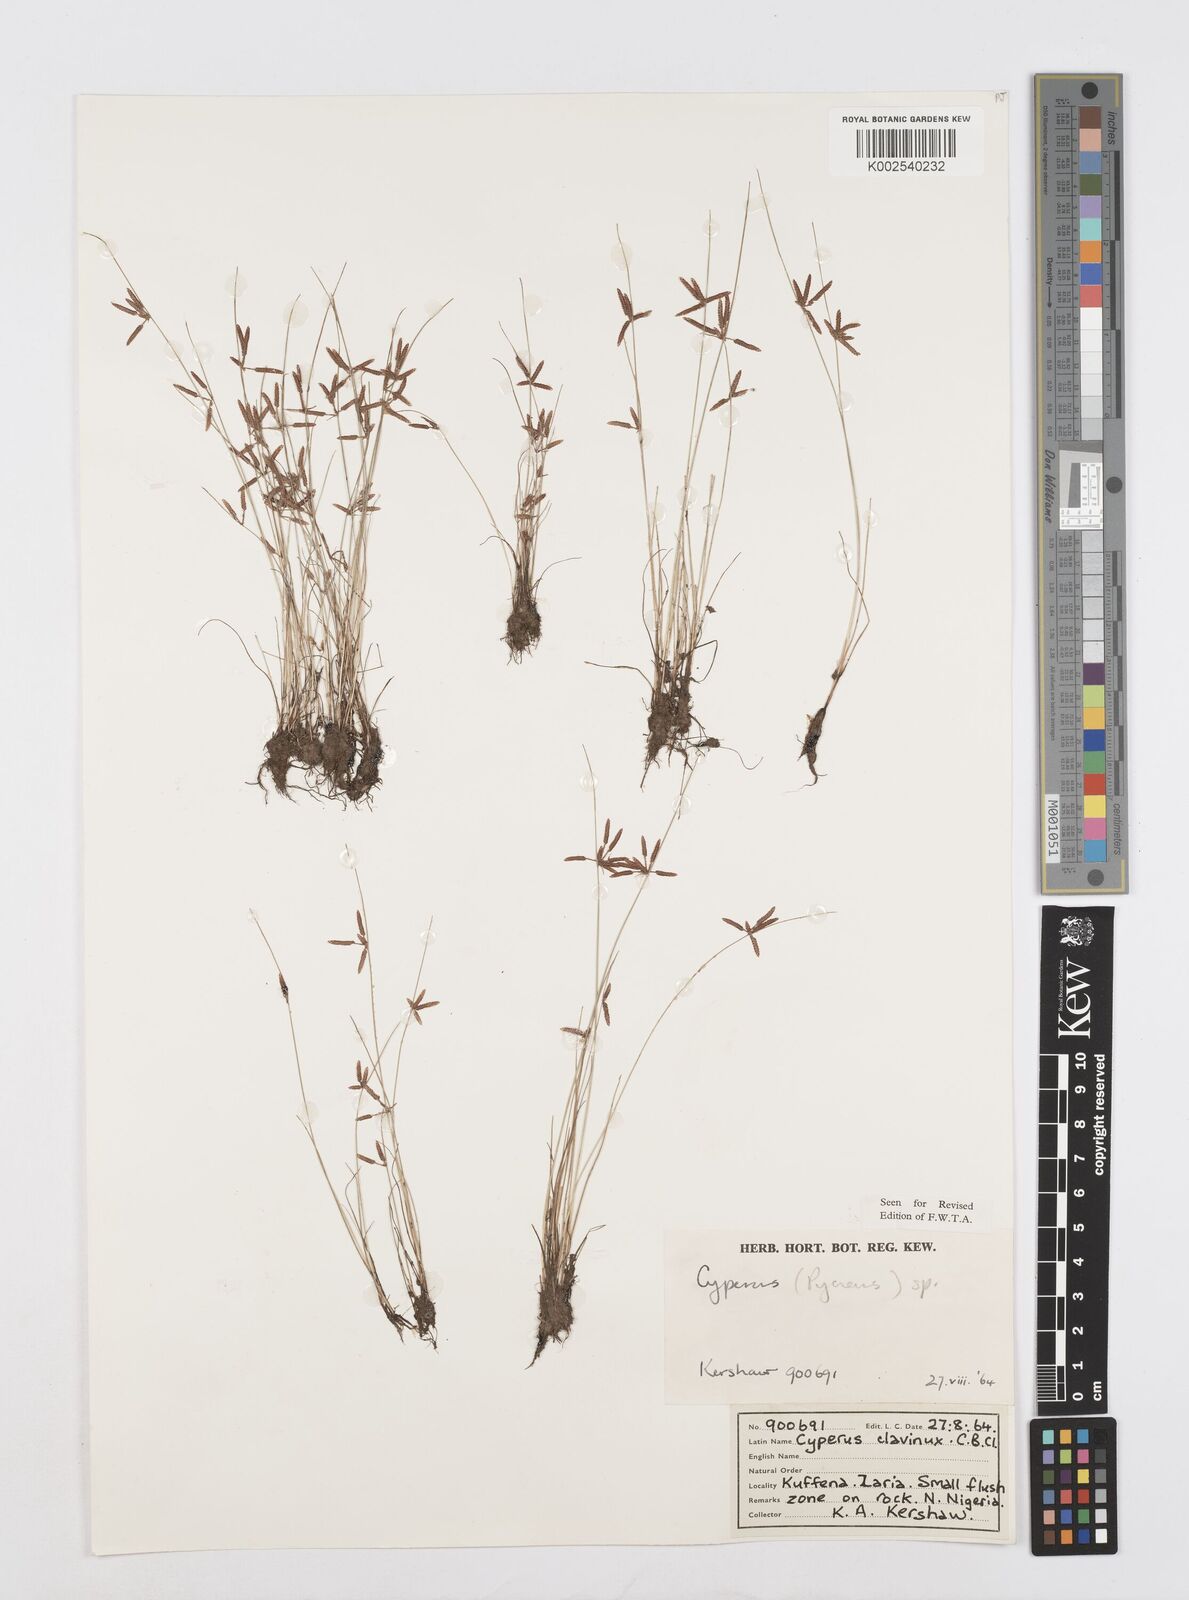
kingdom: Plantae
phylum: Tracheophyta
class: Liliopsida
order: Poales
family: Cyperaceae
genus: Cyperus
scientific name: Cyperus capillifolius
